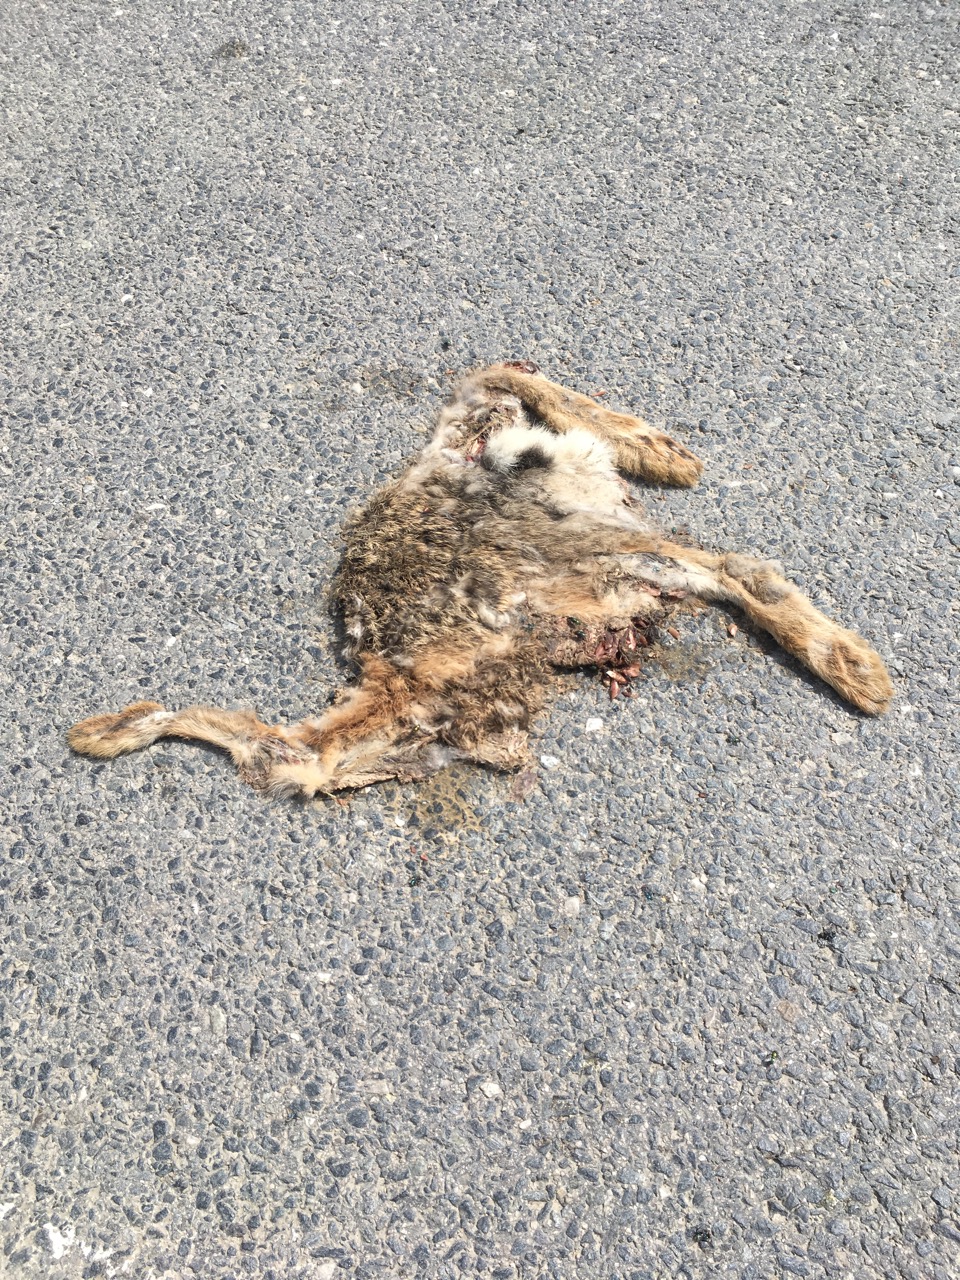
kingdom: Animalia
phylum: Chordata
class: Mammalia
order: Lagomorpha
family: Leporidae
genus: Lepus
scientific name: Lepus europaeus
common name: European hare
